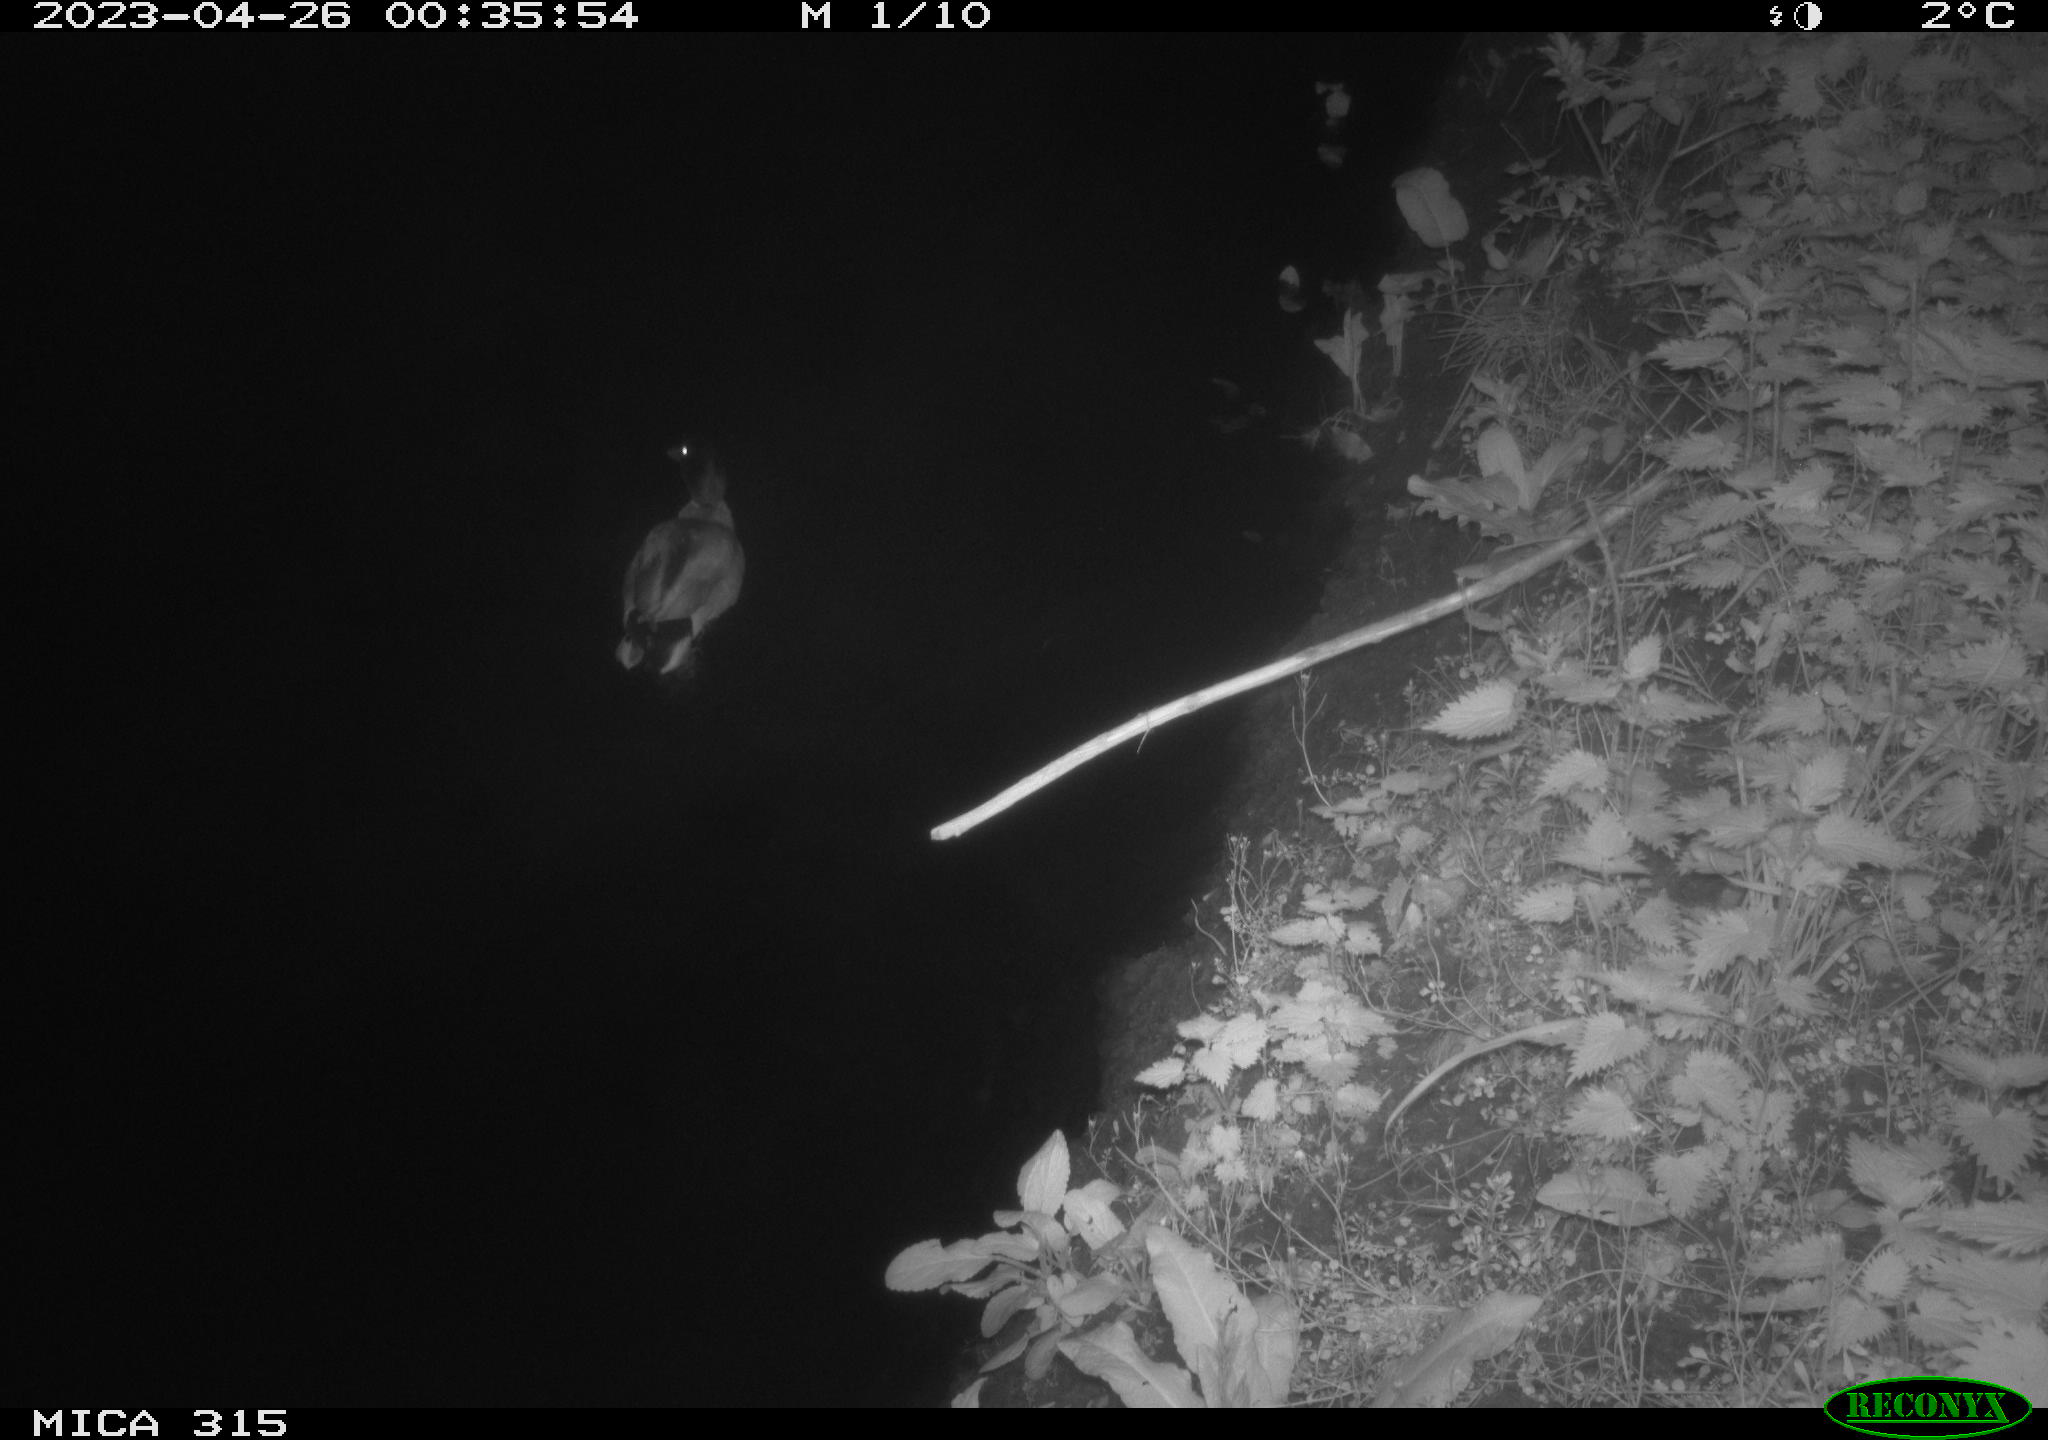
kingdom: Animalia
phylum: Chordata
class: Aves
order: Anseriformes
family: Anatidae
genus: Anas
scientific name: Anas
